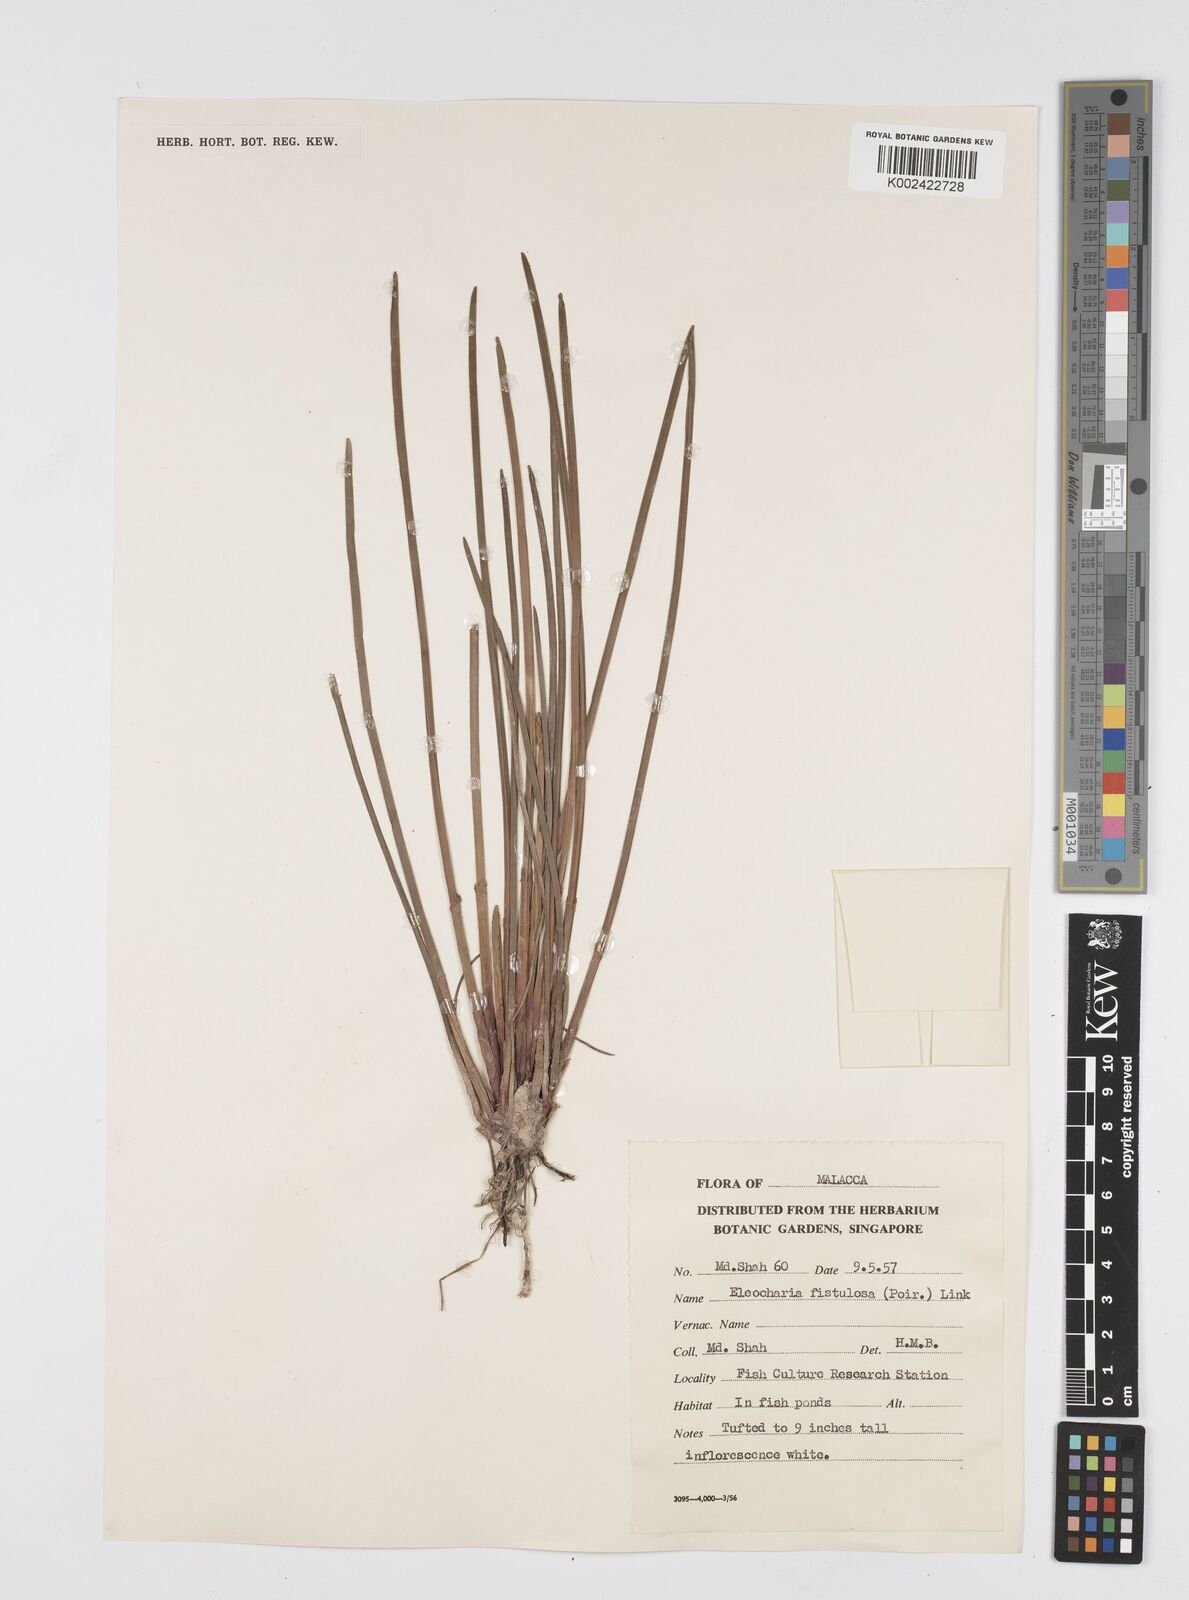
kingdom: Plantae
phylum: Tracheophyta
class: Liliopsida
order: Poales
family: Cyperaceae
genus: Eleocharis
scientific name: Eleocharis acutangula
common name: Acute spikerush
